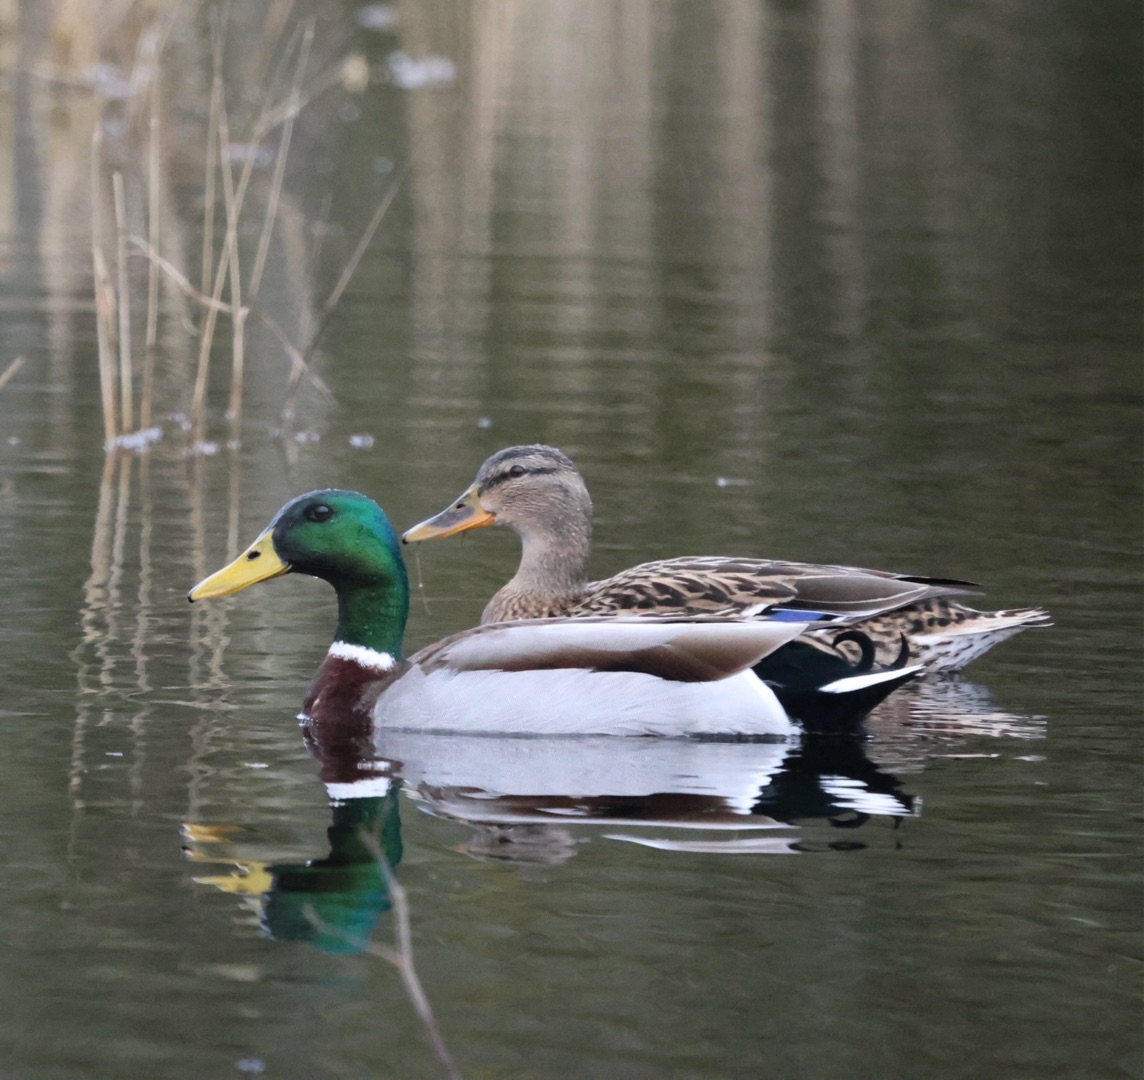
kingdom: Animalia
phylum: Chordata
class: Aves
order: Anseriformes
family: Anatidae
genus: Anas
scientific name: Anas platyrhynchos
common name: Gråand
